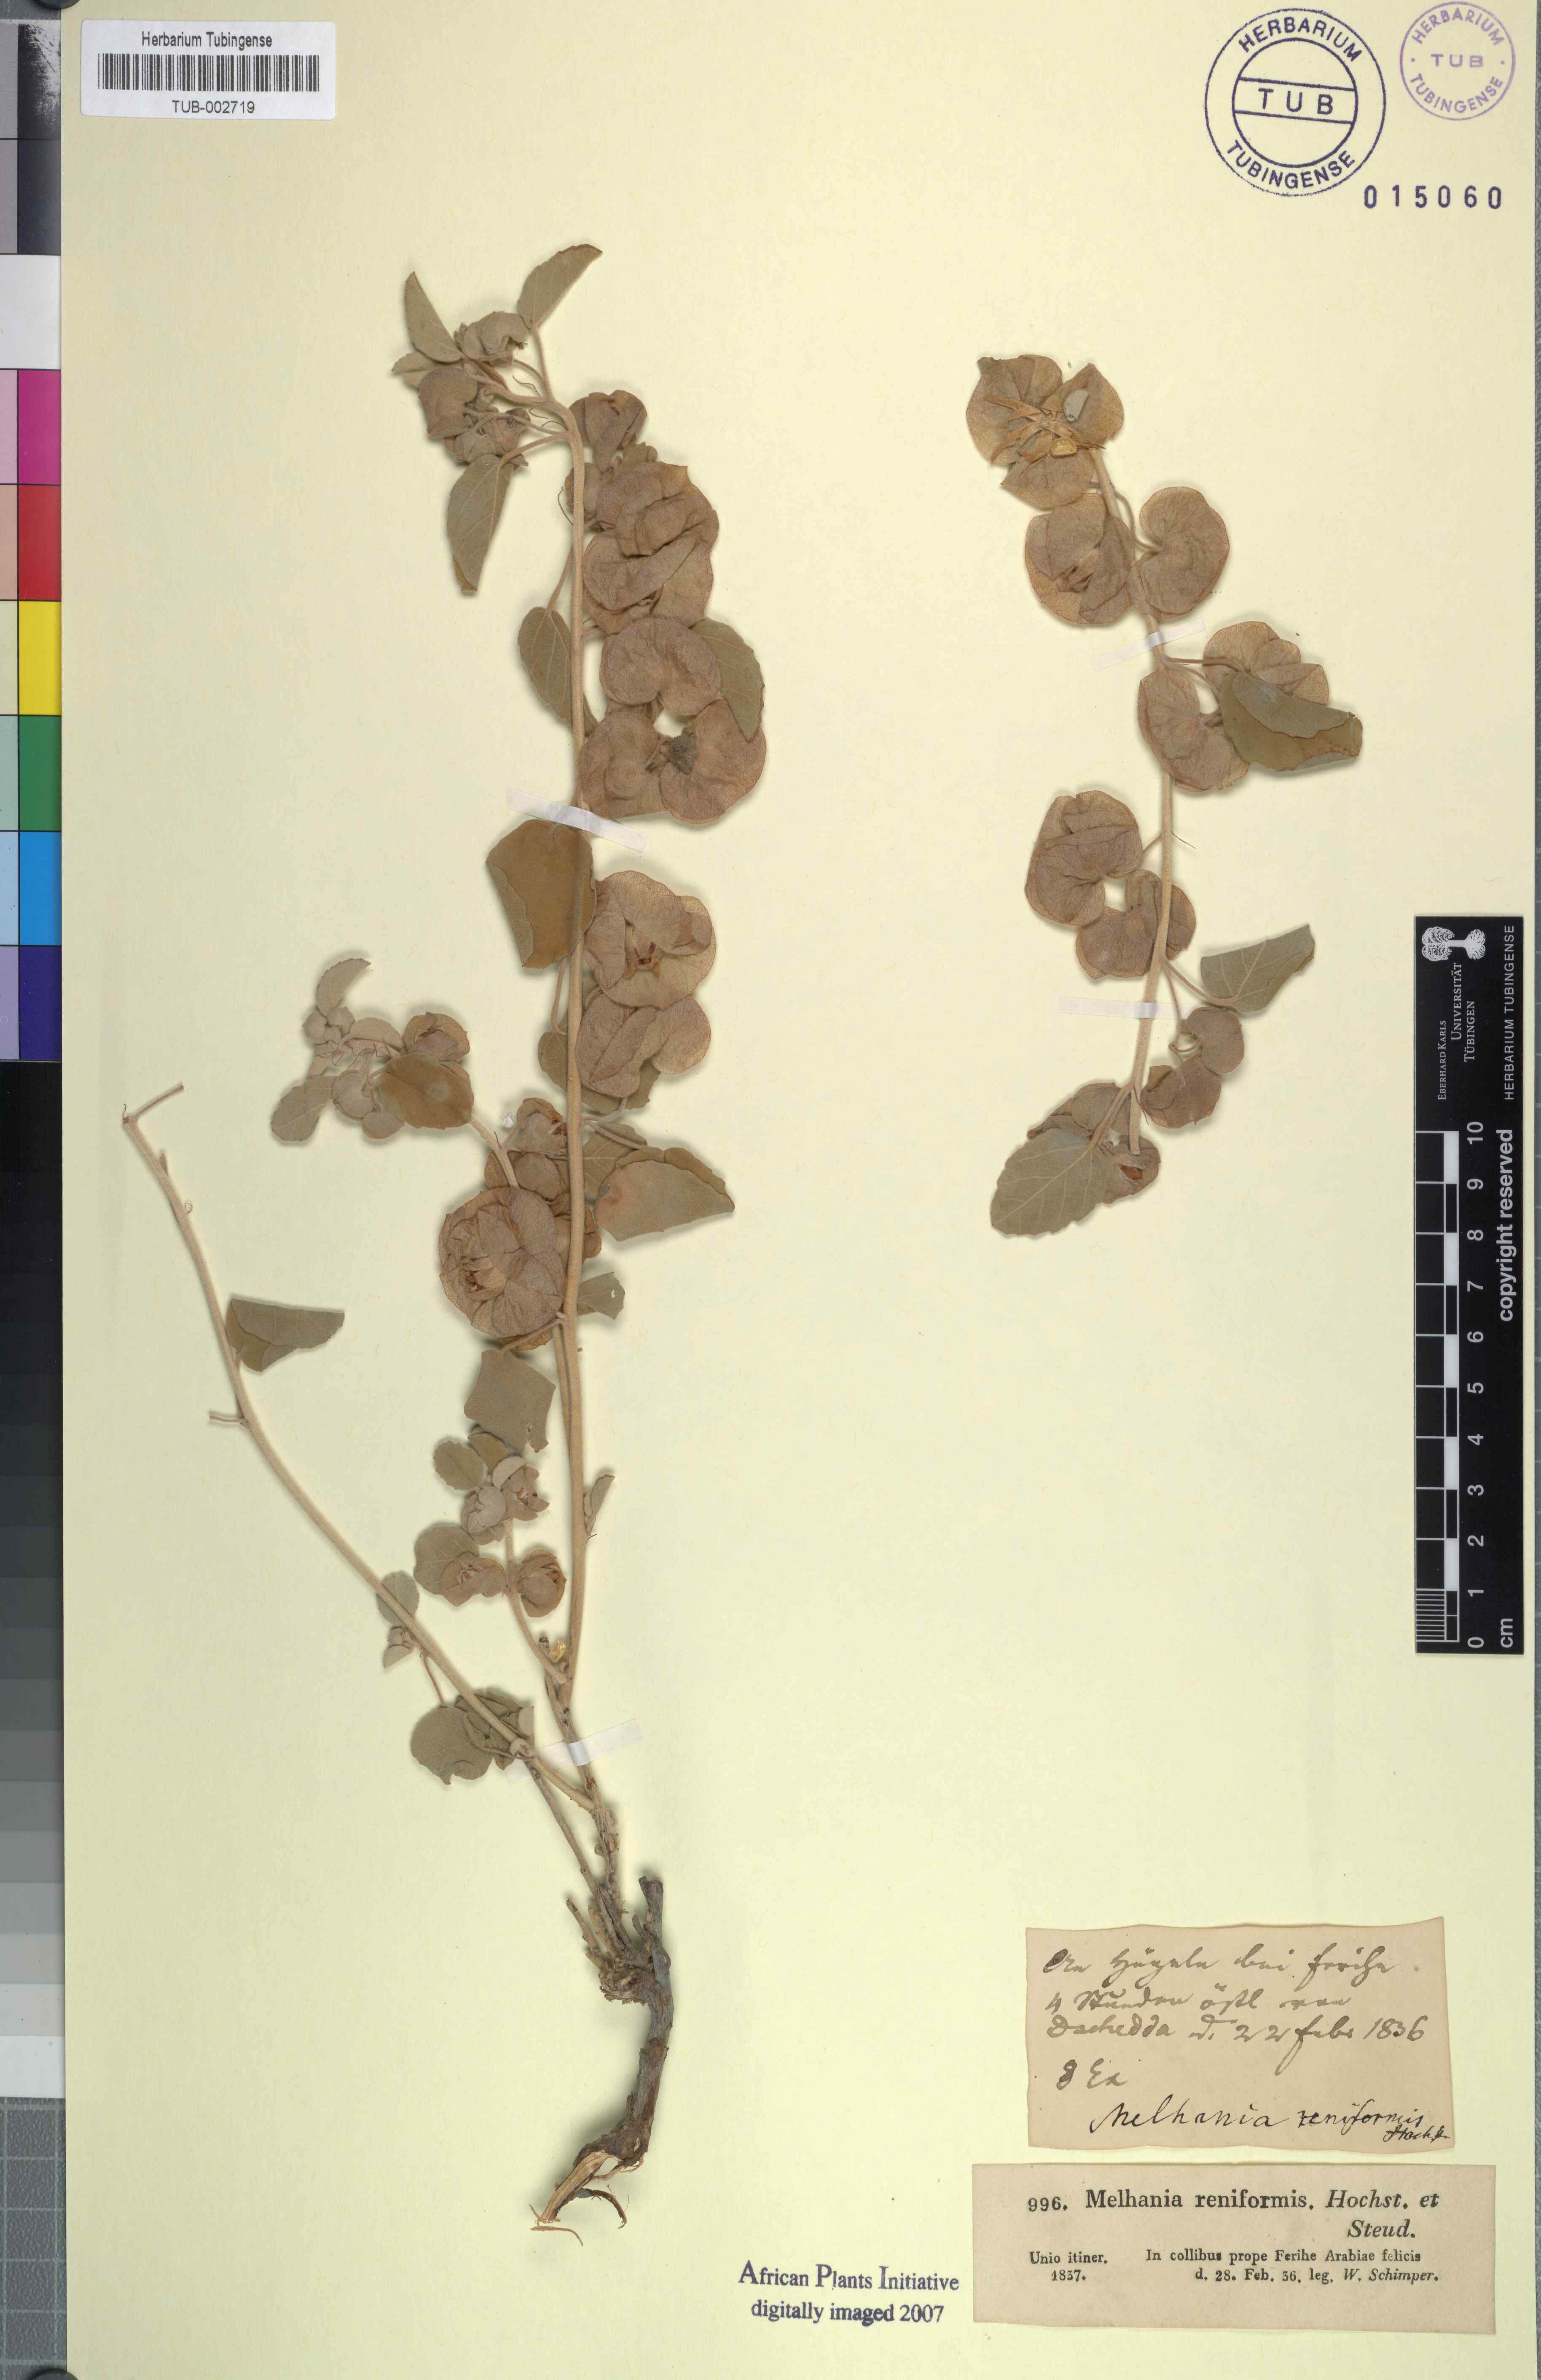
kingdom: Plantae
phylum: Tracheophyta
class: Magnoliopsida
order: Malvales
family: Malvaceae
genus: Melhania
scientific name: Melhania denhamii
